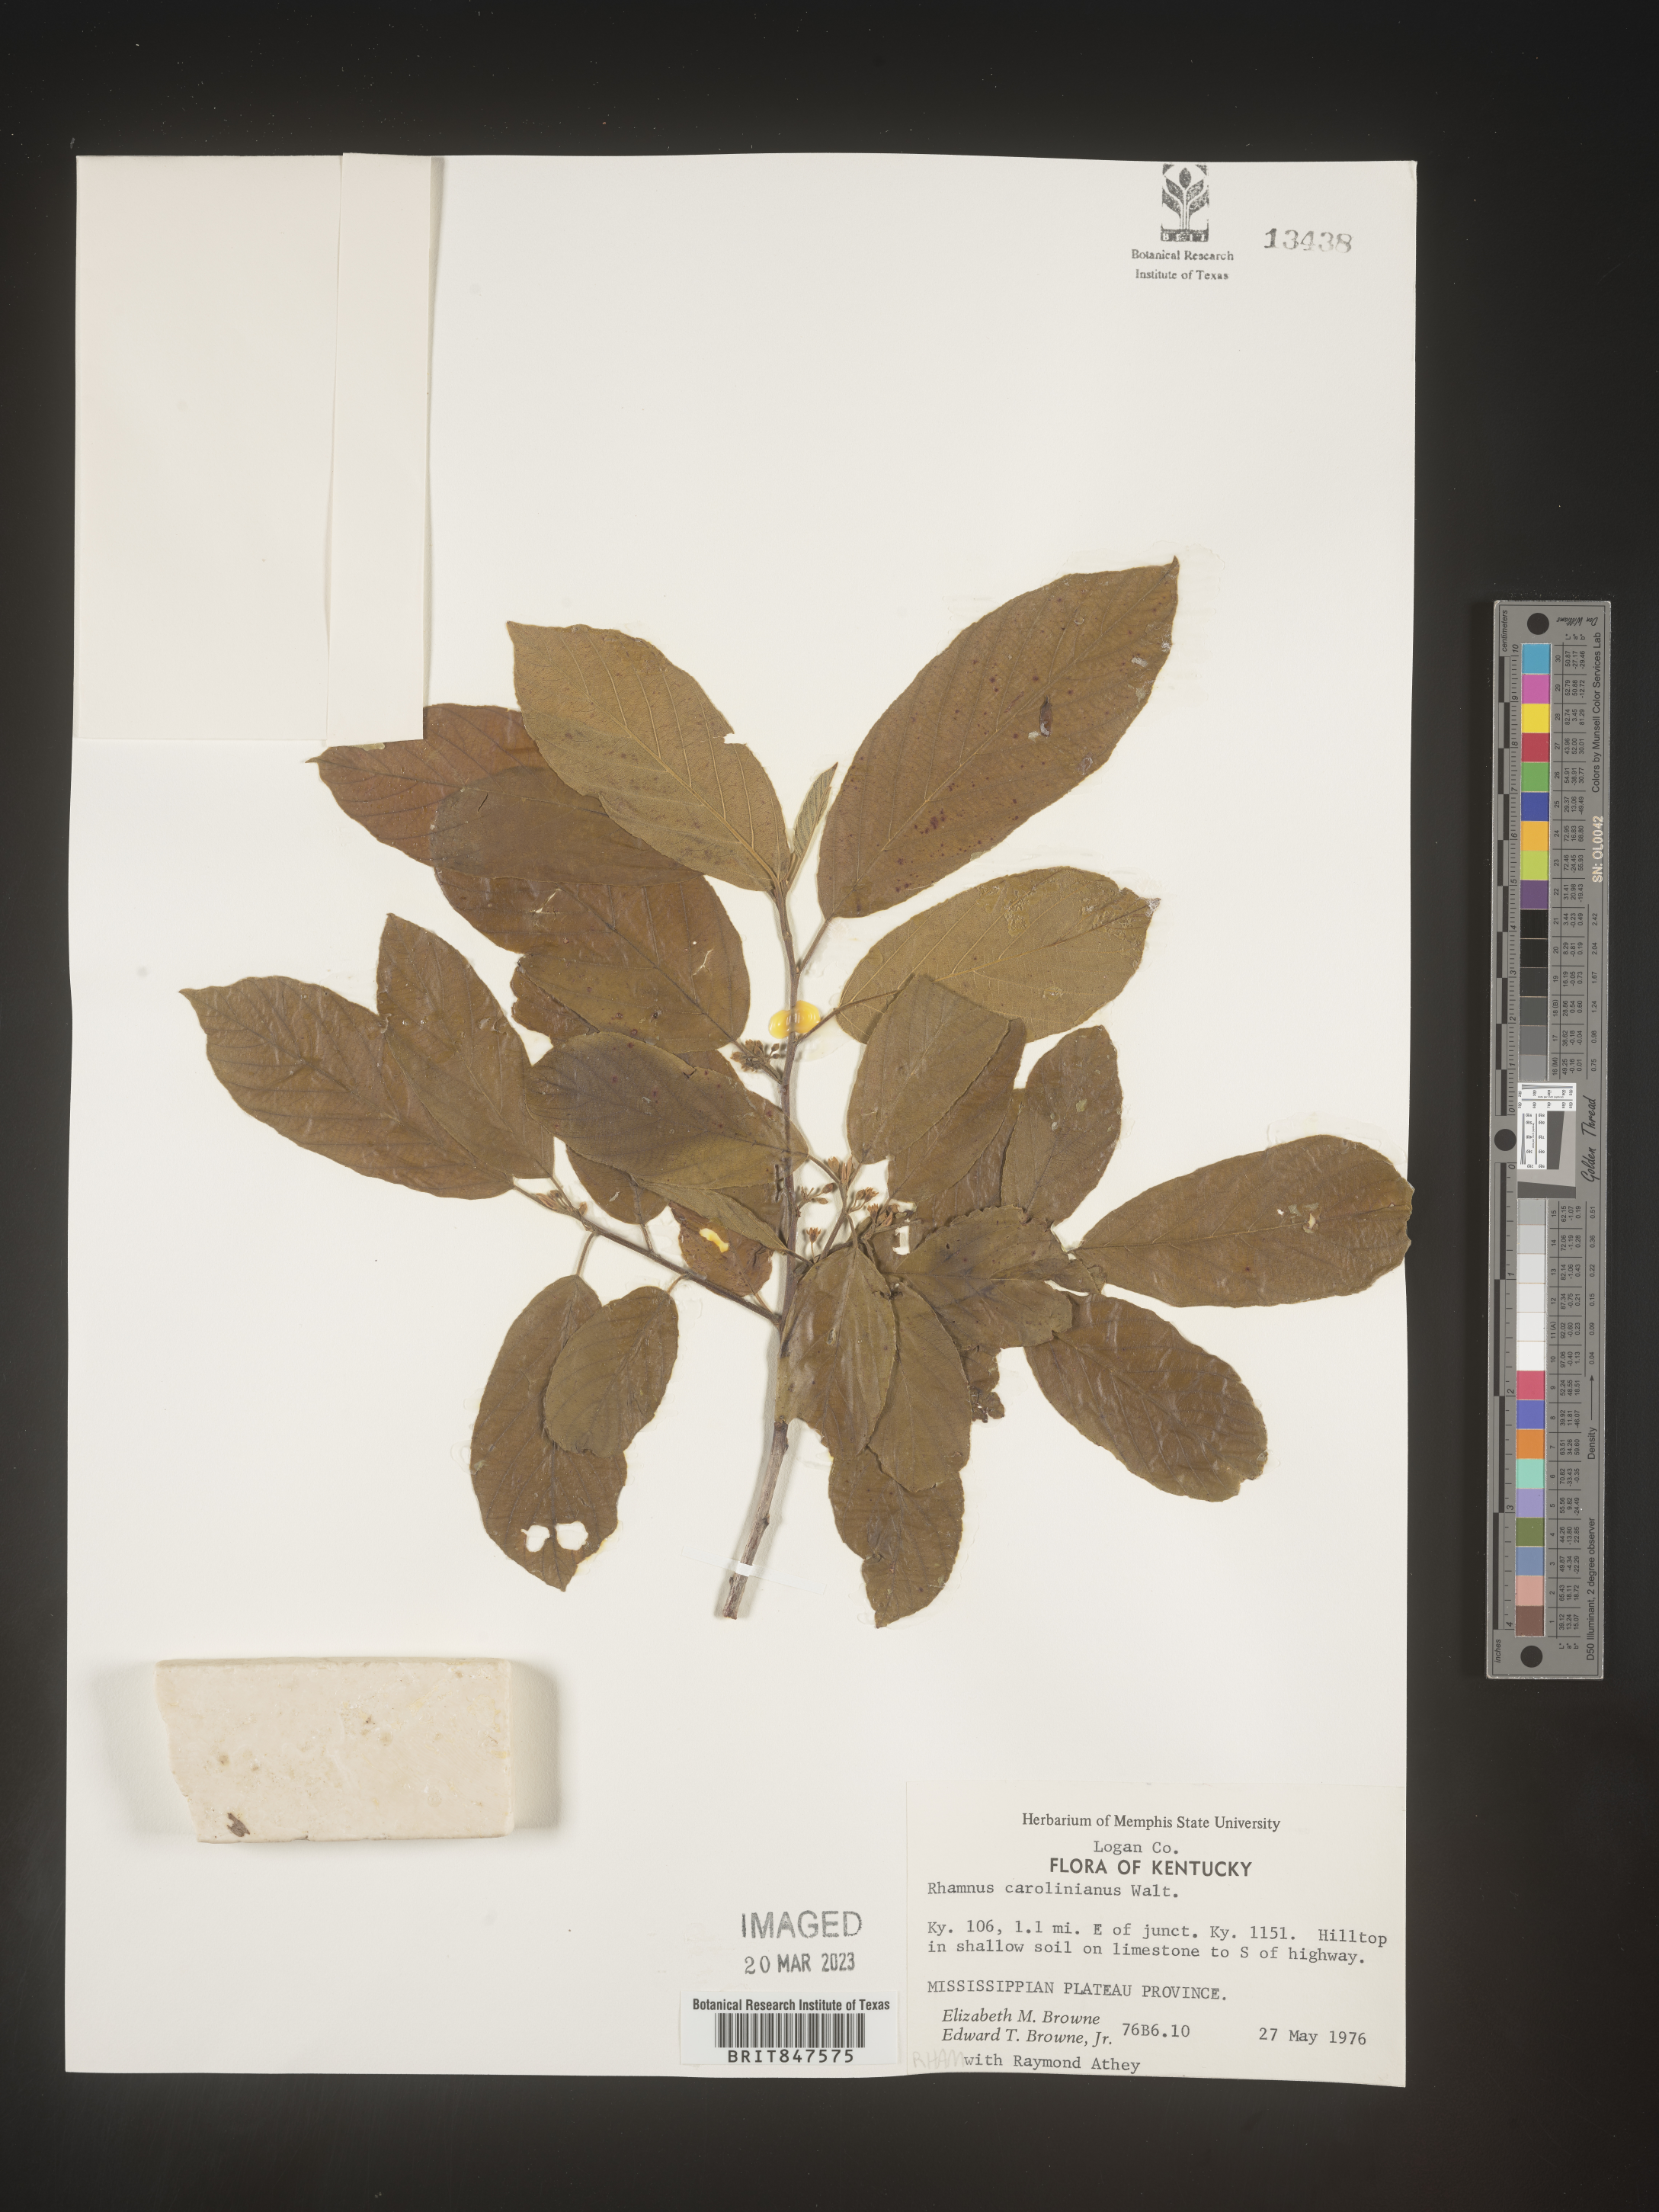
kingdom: Plantae
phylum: Tracheophyta
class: Magnoliopsida
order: Rosales
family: Rhamnaceae
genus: Frangula
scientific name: Frangula caroliniana
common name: Carolina buckthorn
